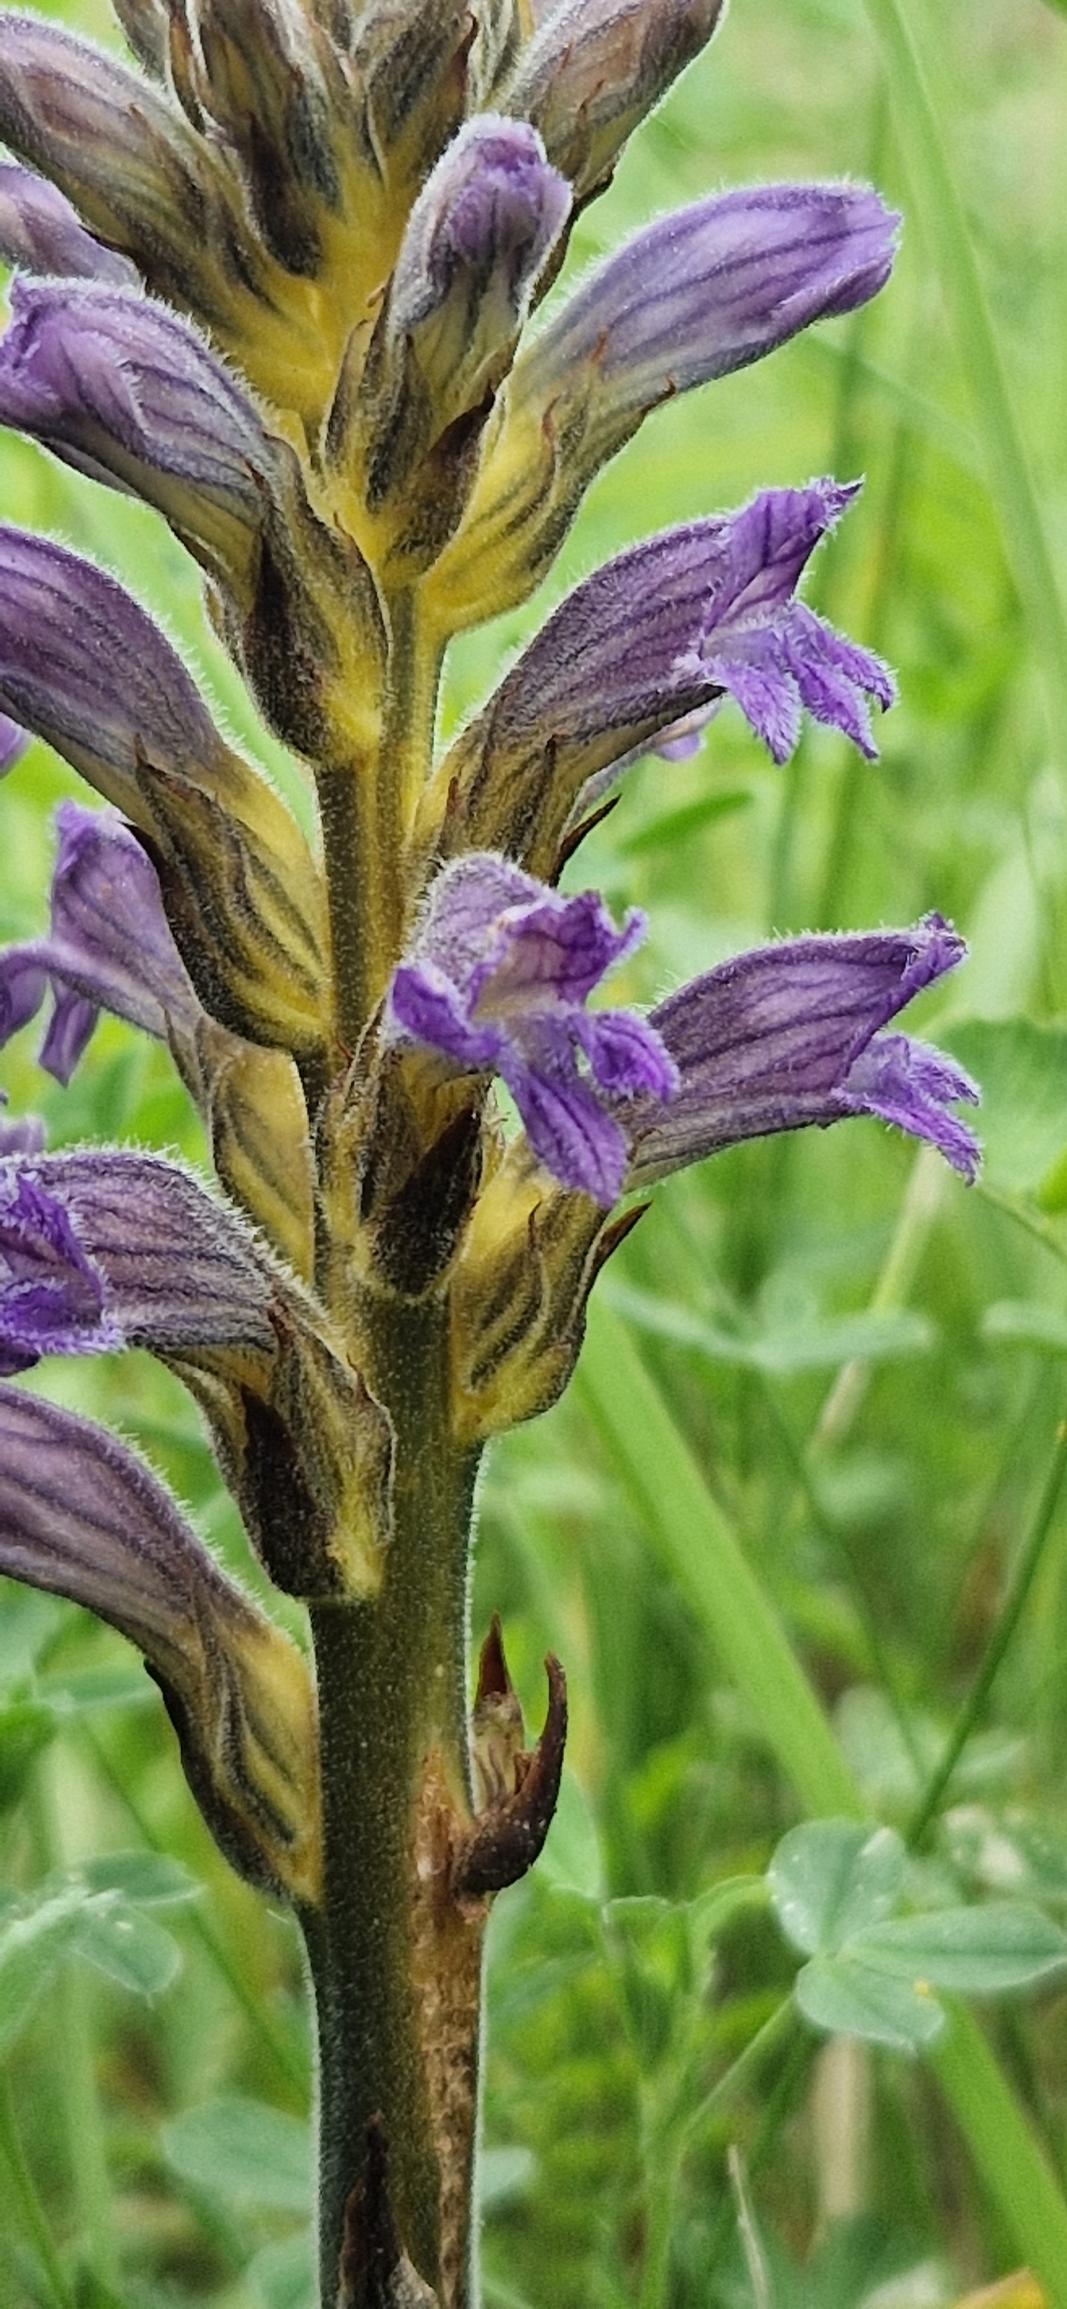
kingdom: Plantae
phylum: Tracheophyta
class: Magnoliopsida
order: Lamiales
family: Orobanchaceae
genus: Phelipanche
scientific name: Phelipanche purpurea
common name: Røllike-gyvelkvæler
